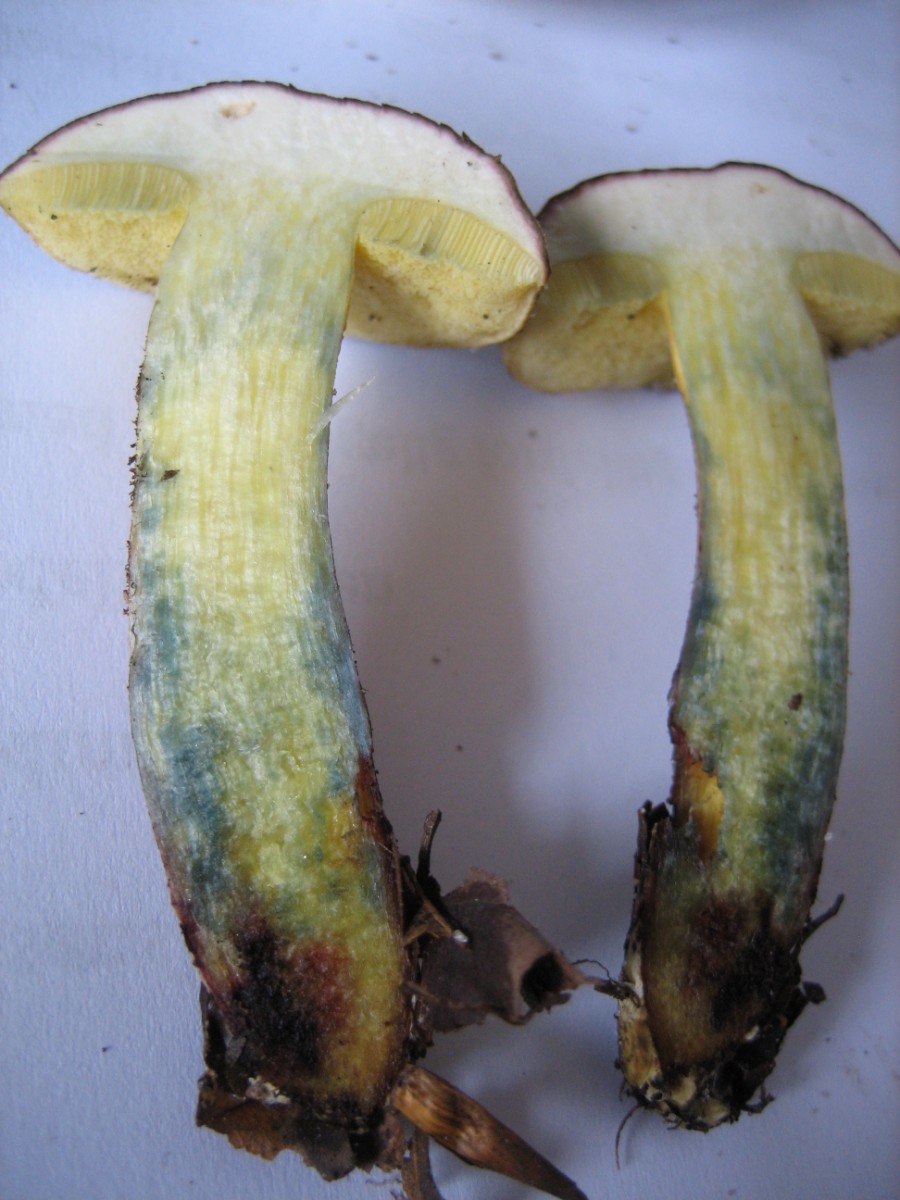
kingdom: Fungi
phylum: Basidiomycota
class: Agaricomycetes
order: Boletales
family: Boletaceae
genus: Xerocomellus
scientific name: Xerocomellus cisalpinus
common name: finsprukken rørhat
